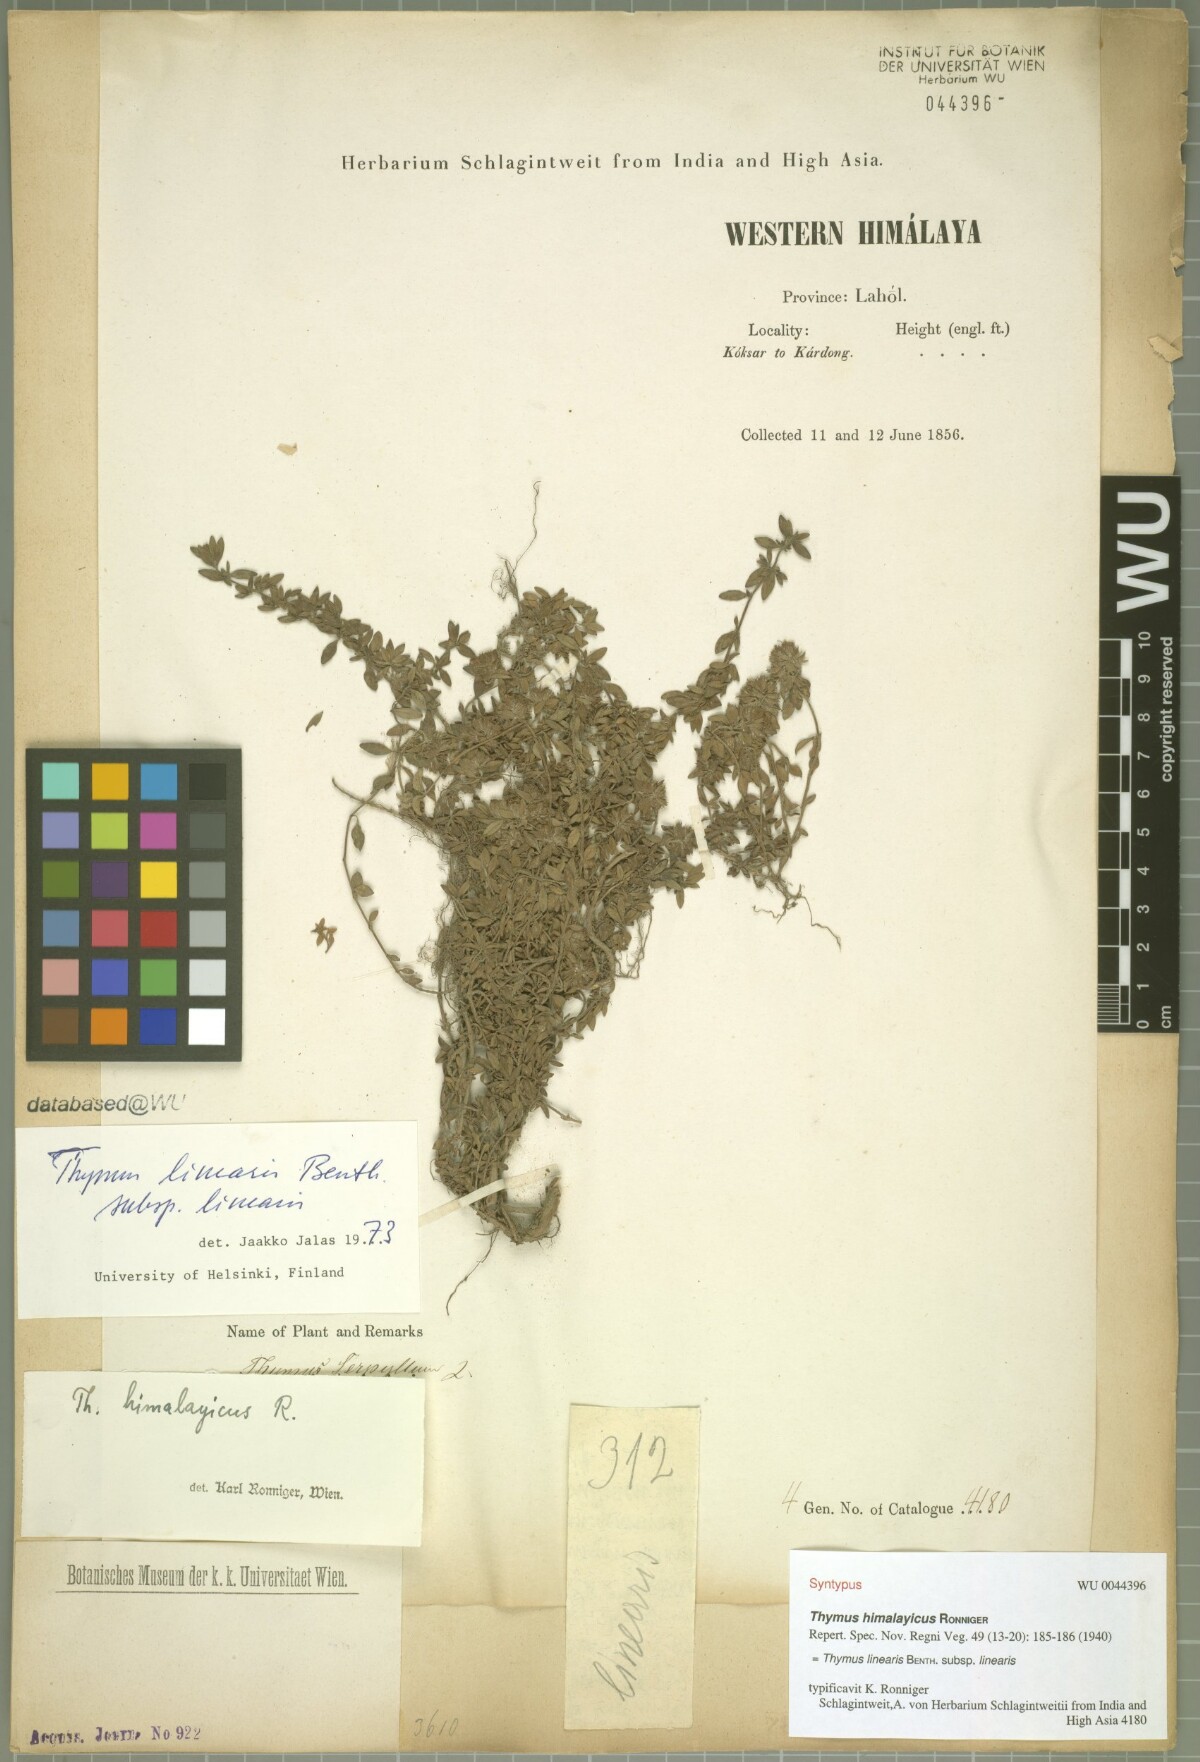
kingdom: Plantae
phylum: Tracheophyta
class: Magnoliopsida
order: Lamiales
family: Lamiaceae
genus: Thymus
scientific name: Thymus linearis
